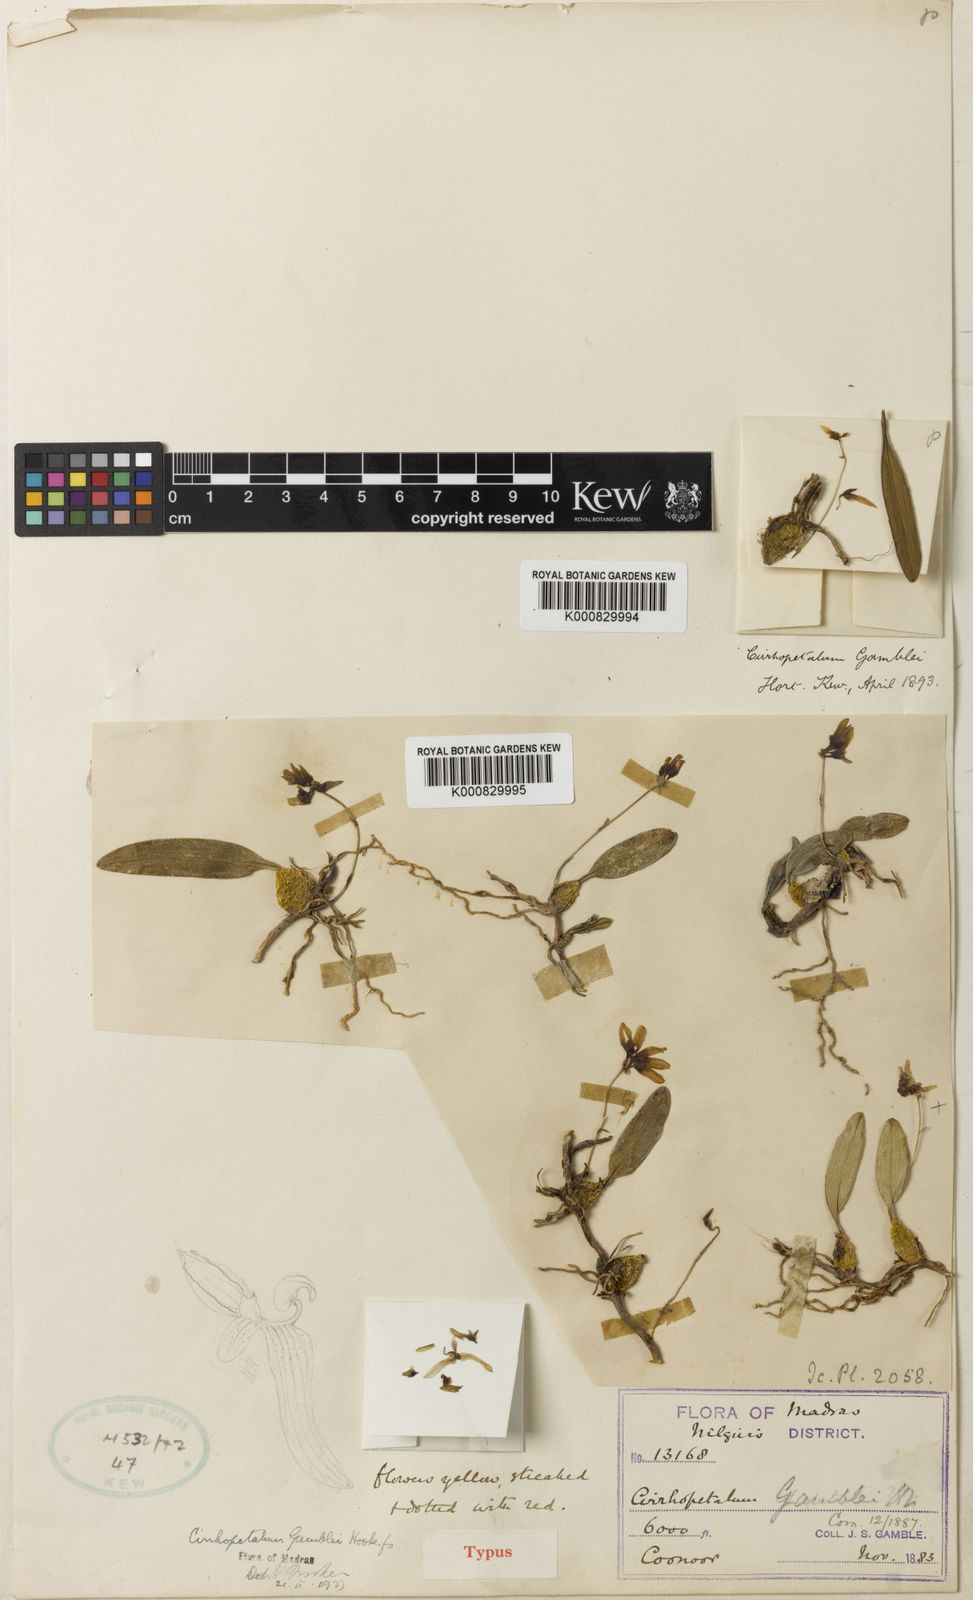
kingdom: Plantae
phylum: Tracheophyta
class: Liliopsida
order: Asparagales
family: Orchidaceae
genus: Bulbophyllum
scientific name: Bulbophyllum fischeri
